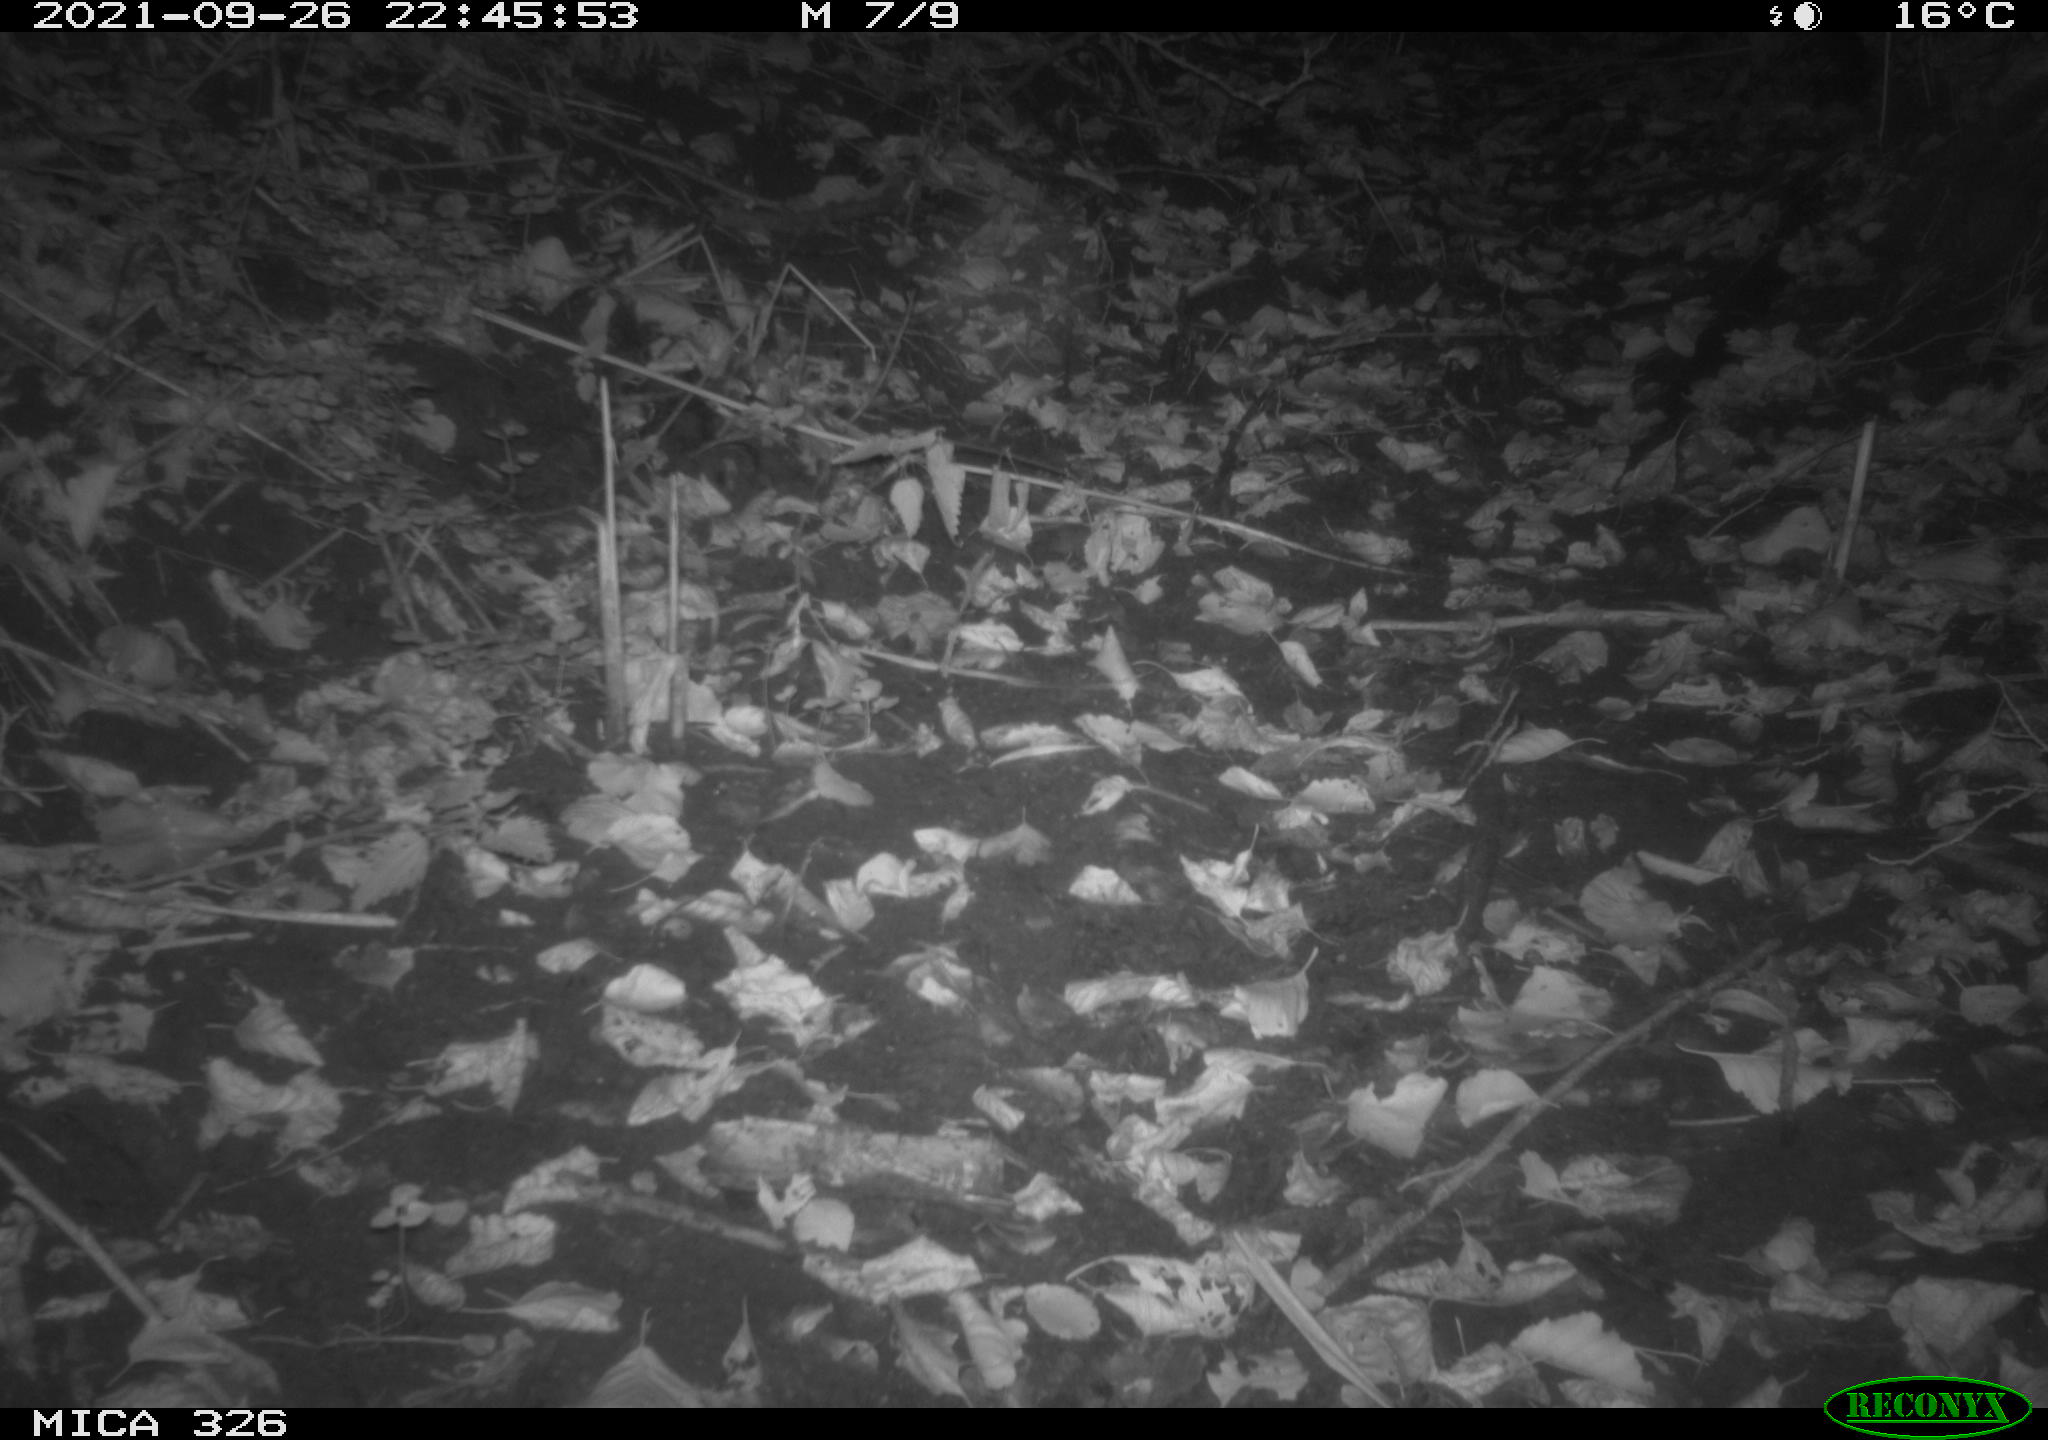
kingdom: Animalia
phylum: Chordata
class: Mammalia
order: Rodentia
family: Cricetidae
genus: Ondatra
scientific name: Ondatra zibethicus
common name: Muskrat
